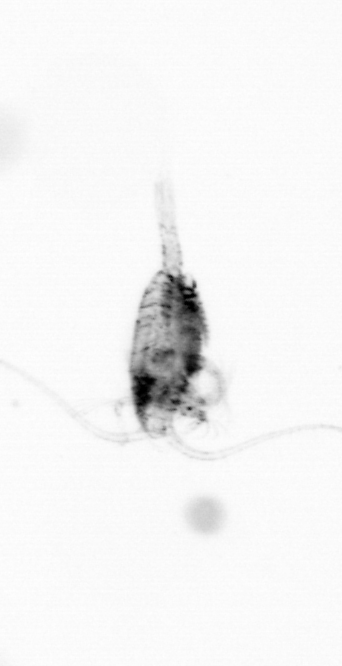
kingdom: Animalia
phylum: Arthropoda
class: Copepoda
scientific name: Copepoda
